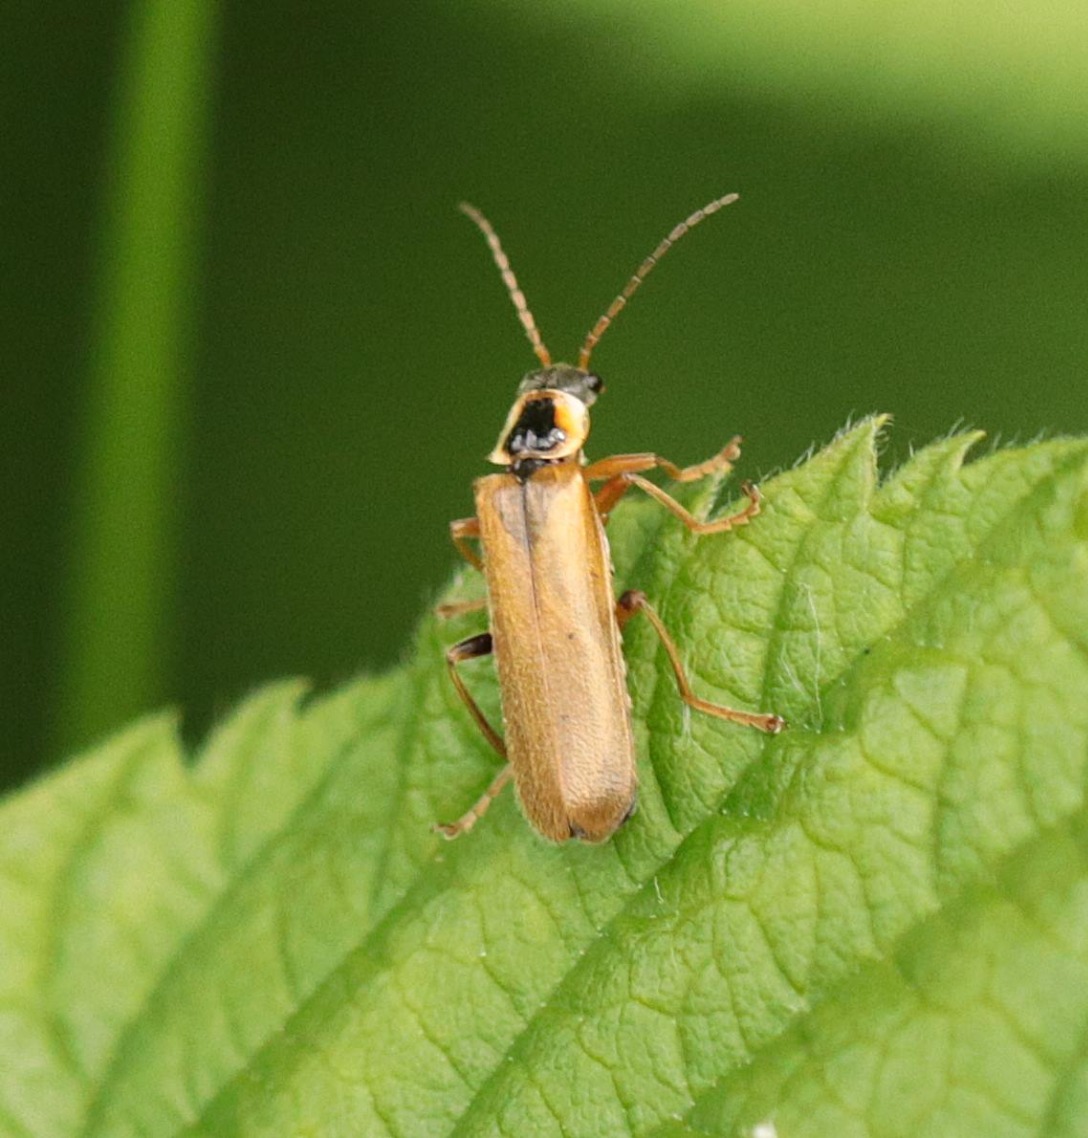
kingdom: Animalia
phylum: Arthropoda
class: Insecta
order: Coleoptera
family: Cantharidae
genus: Cantharis
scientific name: Cantharis decipiens
